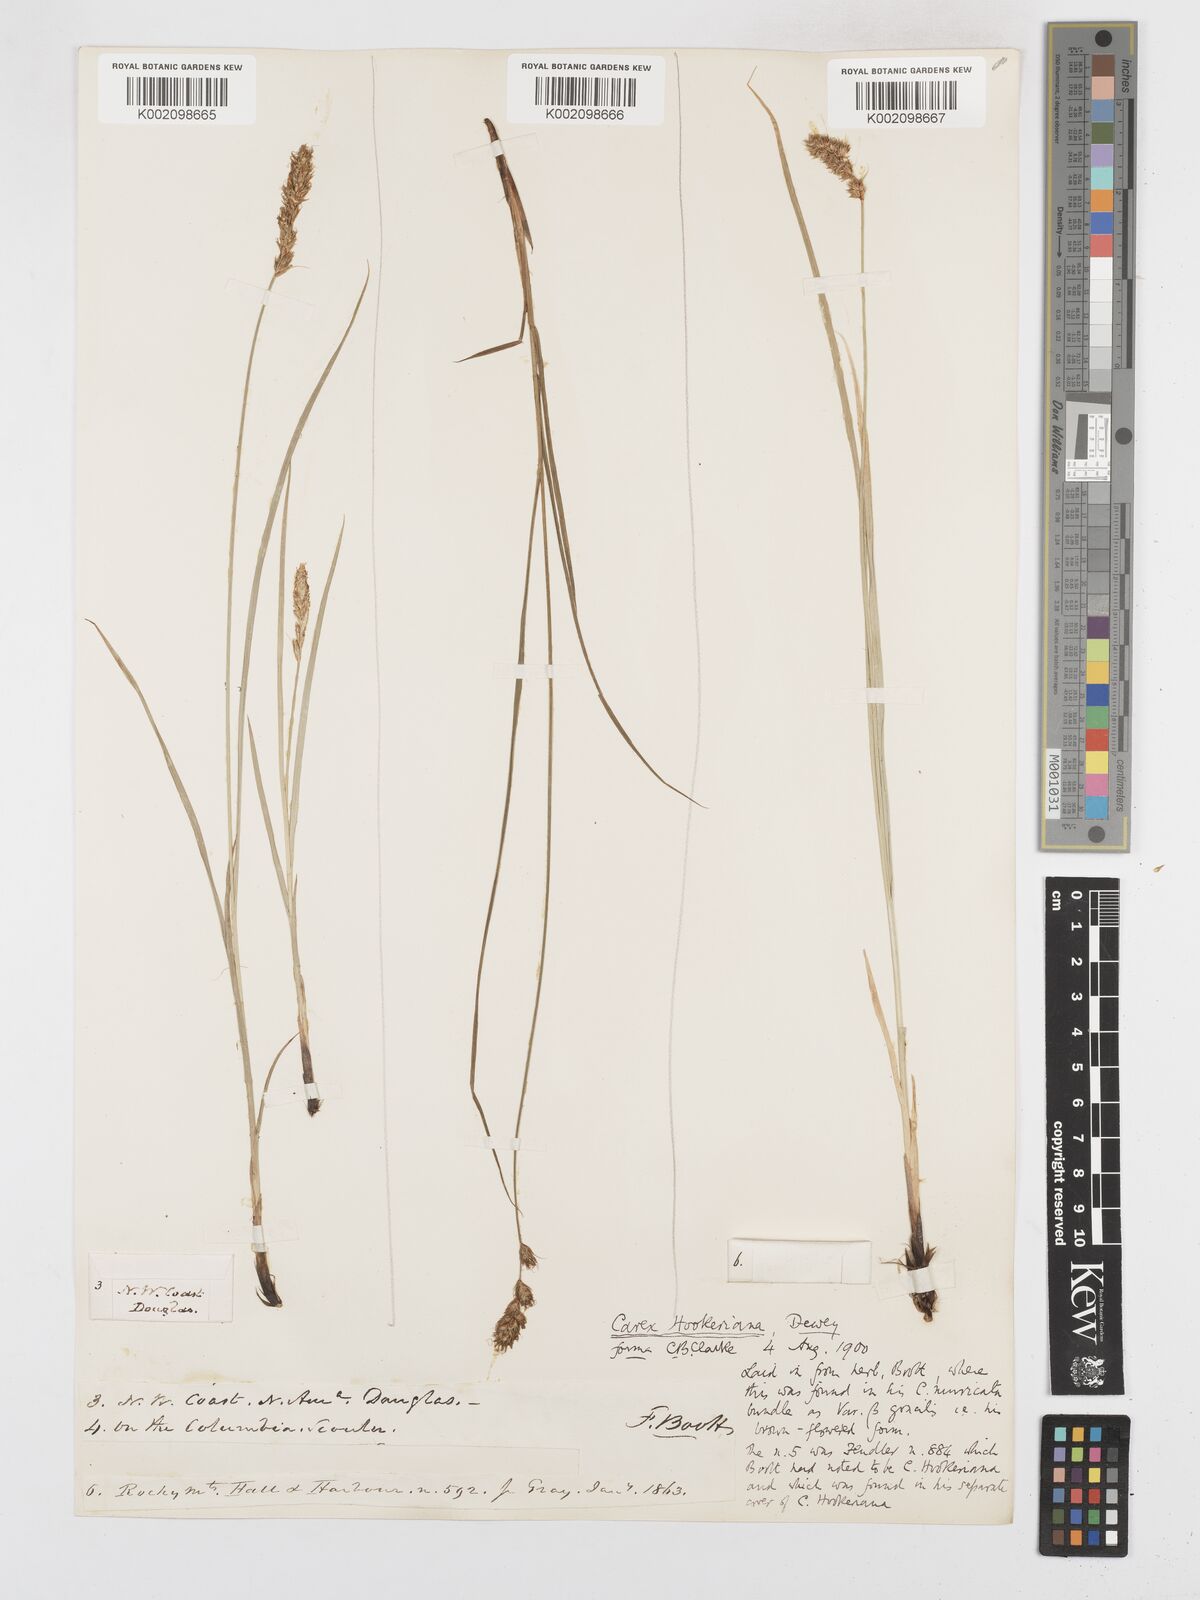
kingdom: Plantae
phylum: Tracheophyta
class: Liliopsida
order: Poales
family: Cyperaceae
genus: Carex
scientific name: Carex tumulicola
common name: Splitawn sedge
